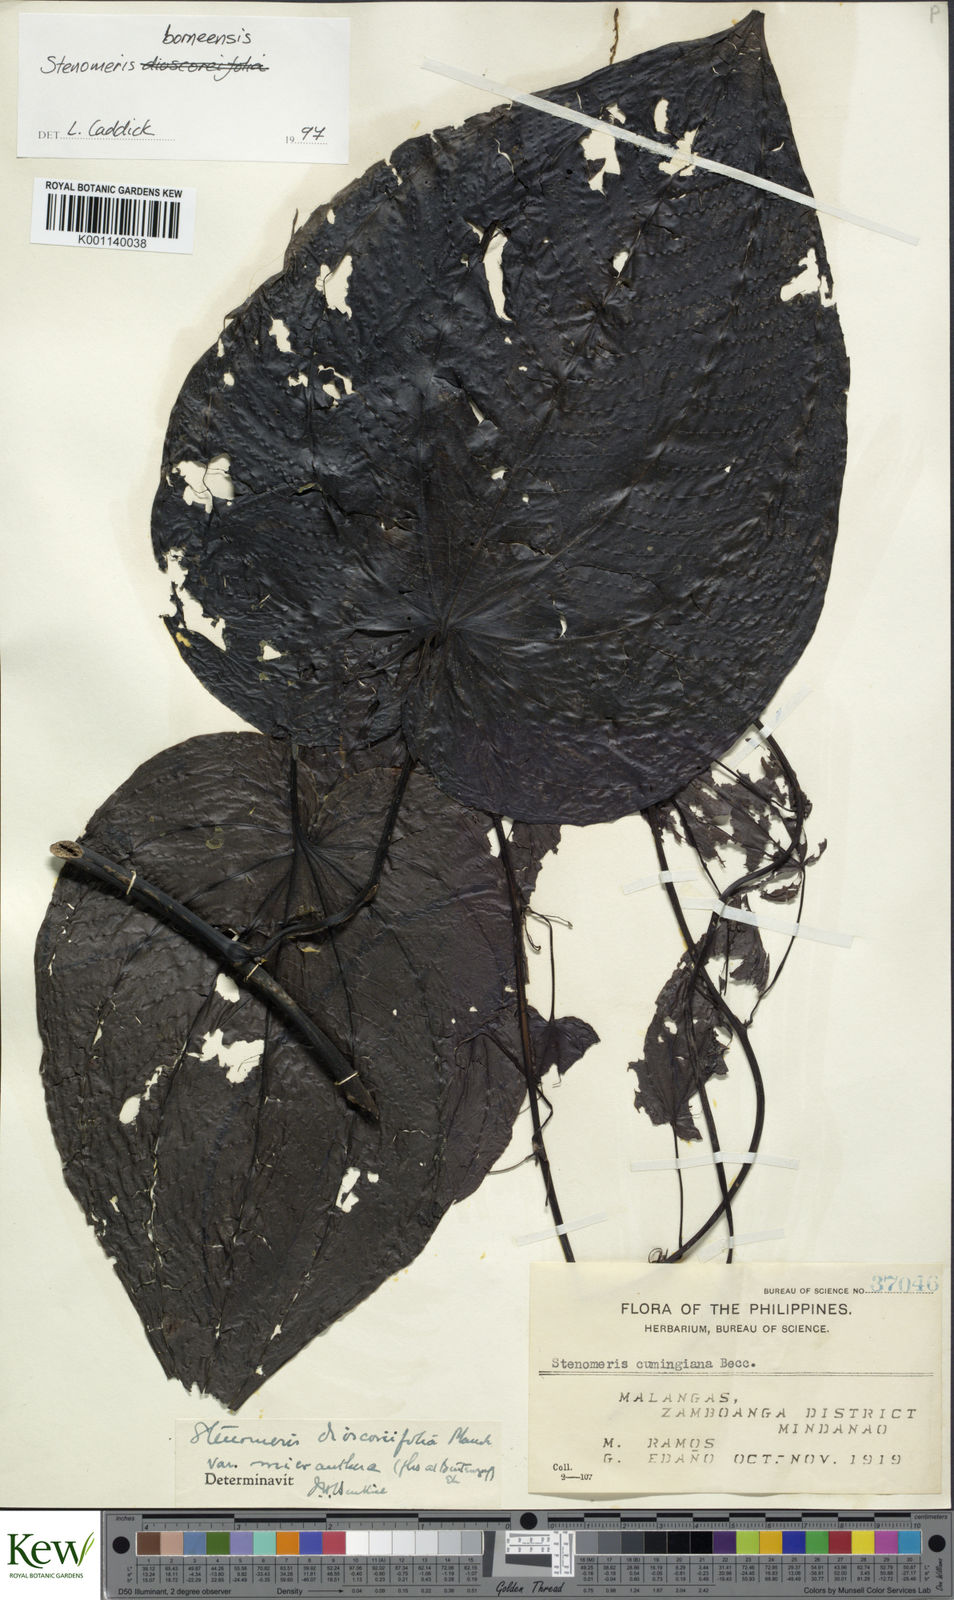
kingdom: Plantae
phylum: Tracheophyta
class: Liliopsida
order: Dioscoreales
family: Dioscoreaceae
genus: Stenomeris
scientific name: Stenomeris borneensis
